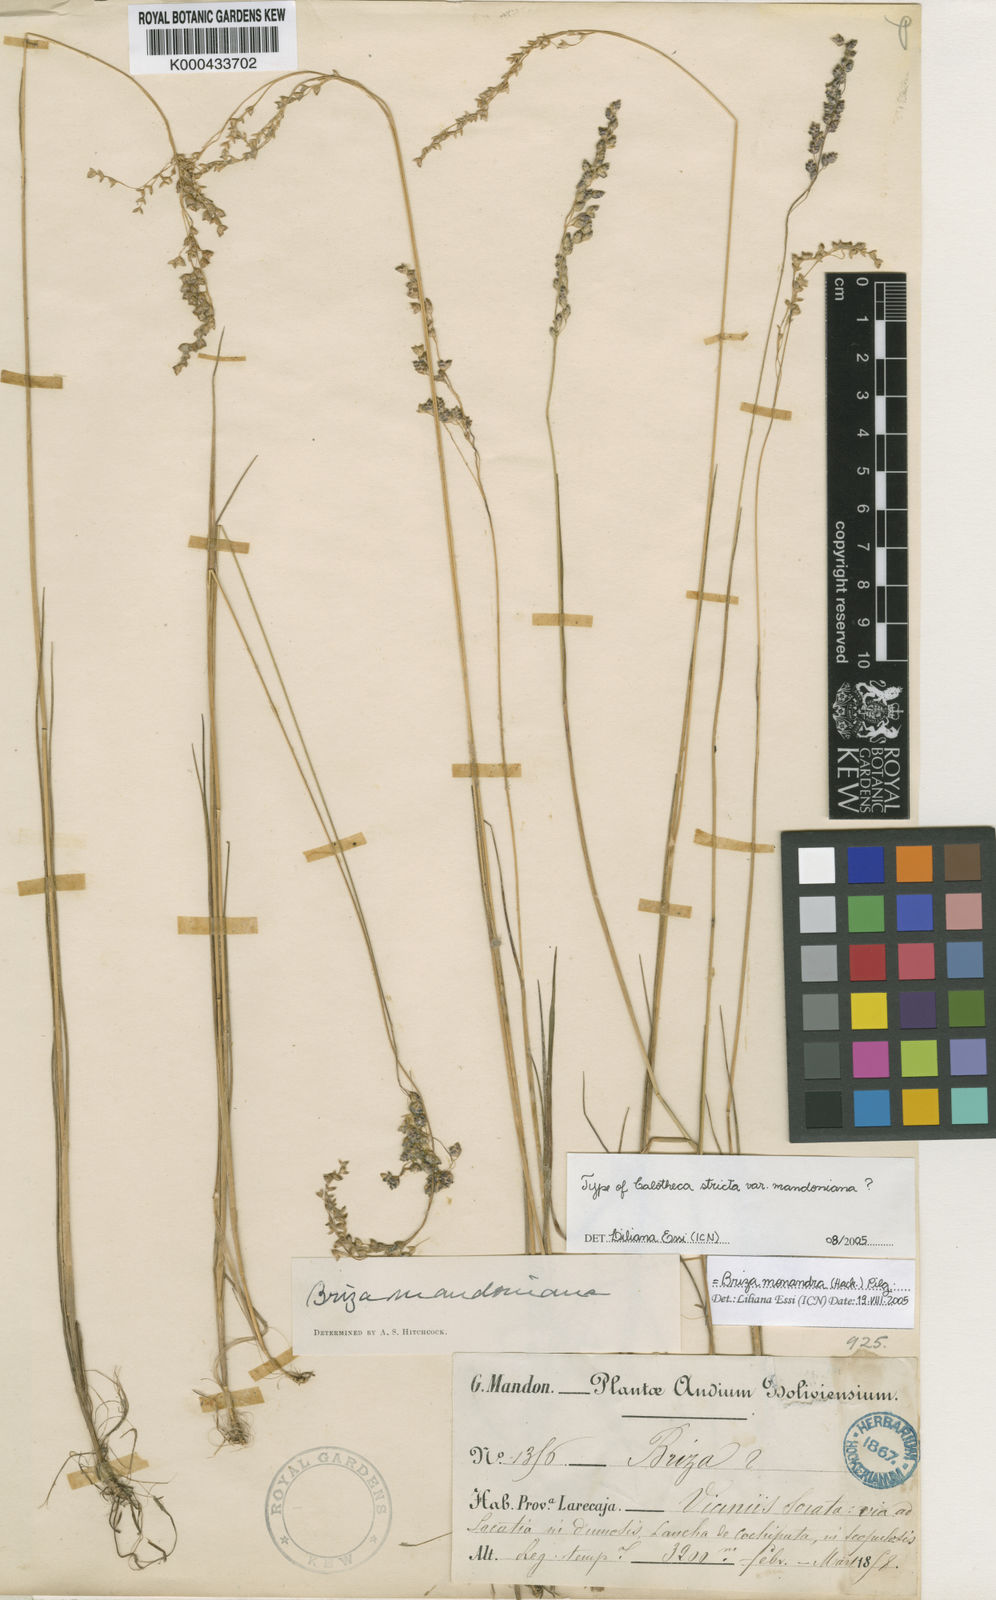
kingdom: Plantae
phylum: Tracheophyta
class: Liliopsida
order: Poales
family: Poaceae
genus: Poidium
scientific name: Poidium monandrum
